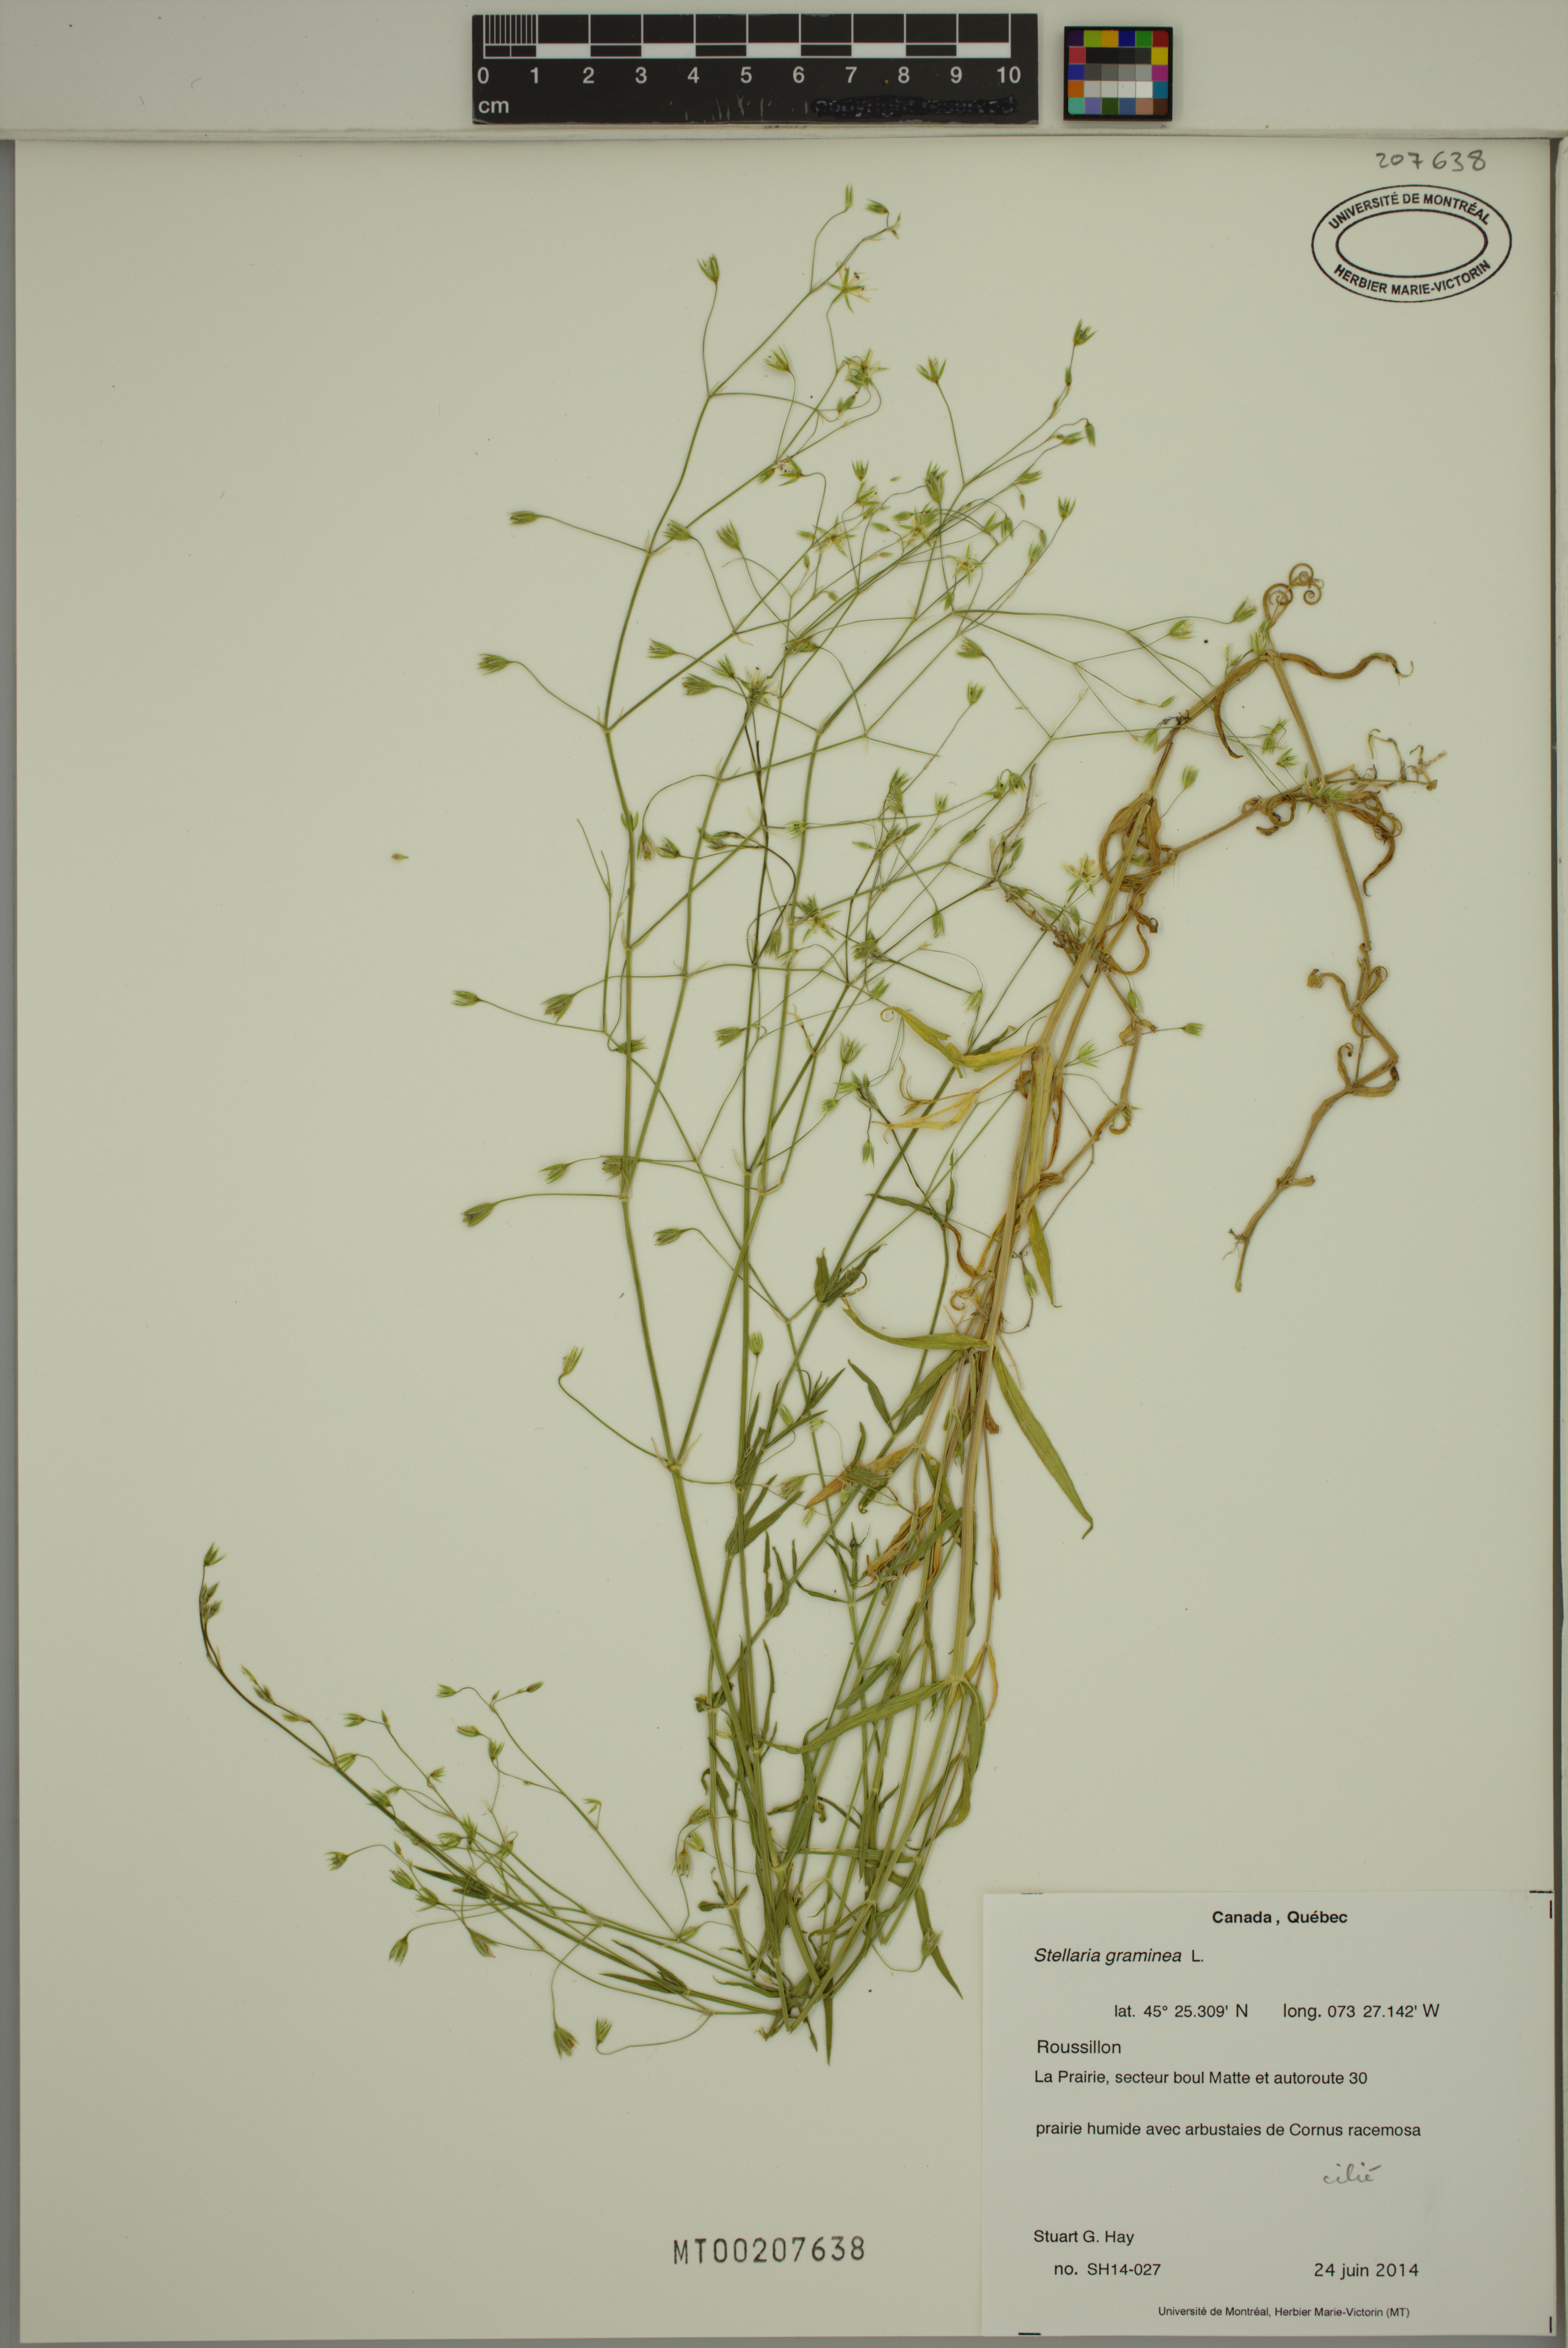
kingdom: Plantae
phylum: Tracheophyta
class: Magnoliopsida
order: Caryophyllales
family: Caryophyllaceae
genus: Stellaria
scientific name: Stellaria graminea
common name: Grass-like starwort
